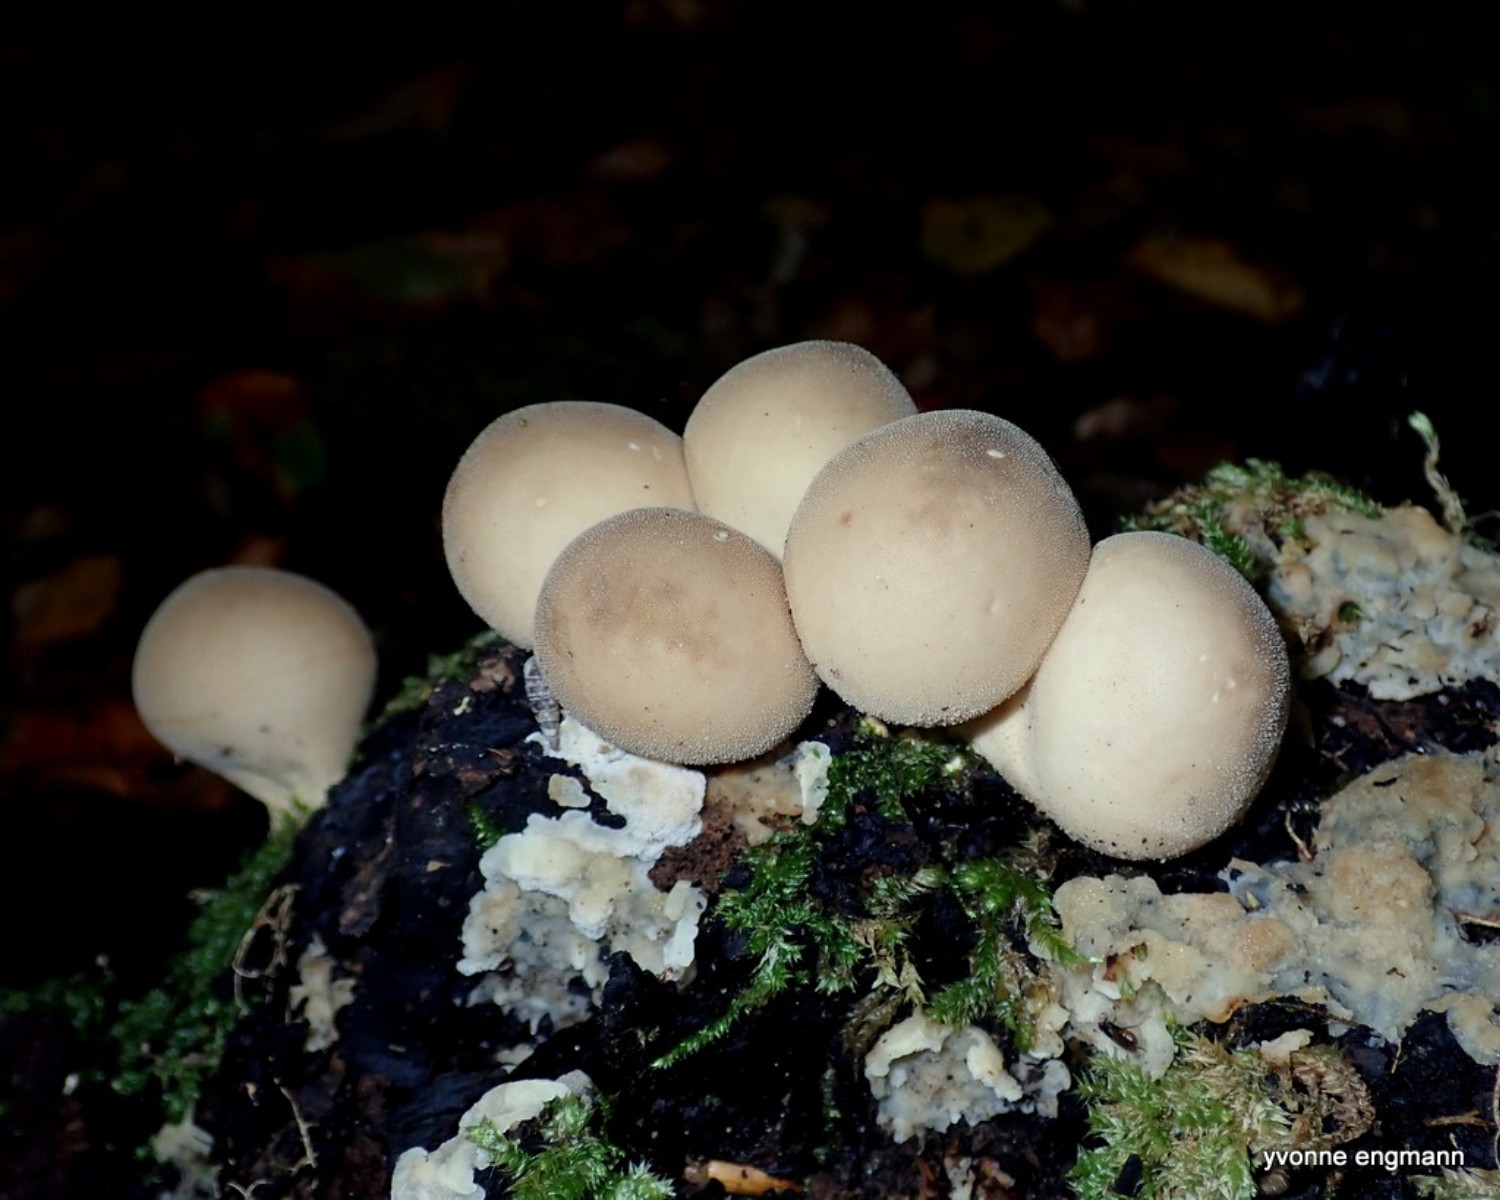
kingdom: Fungi
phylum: Basidiomycota
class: Agaricomycetes
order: Agaricales
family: Lycoperdaceae
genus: Apioperdon
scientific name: Apioperdon pyriforme
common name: pære-støvbold
